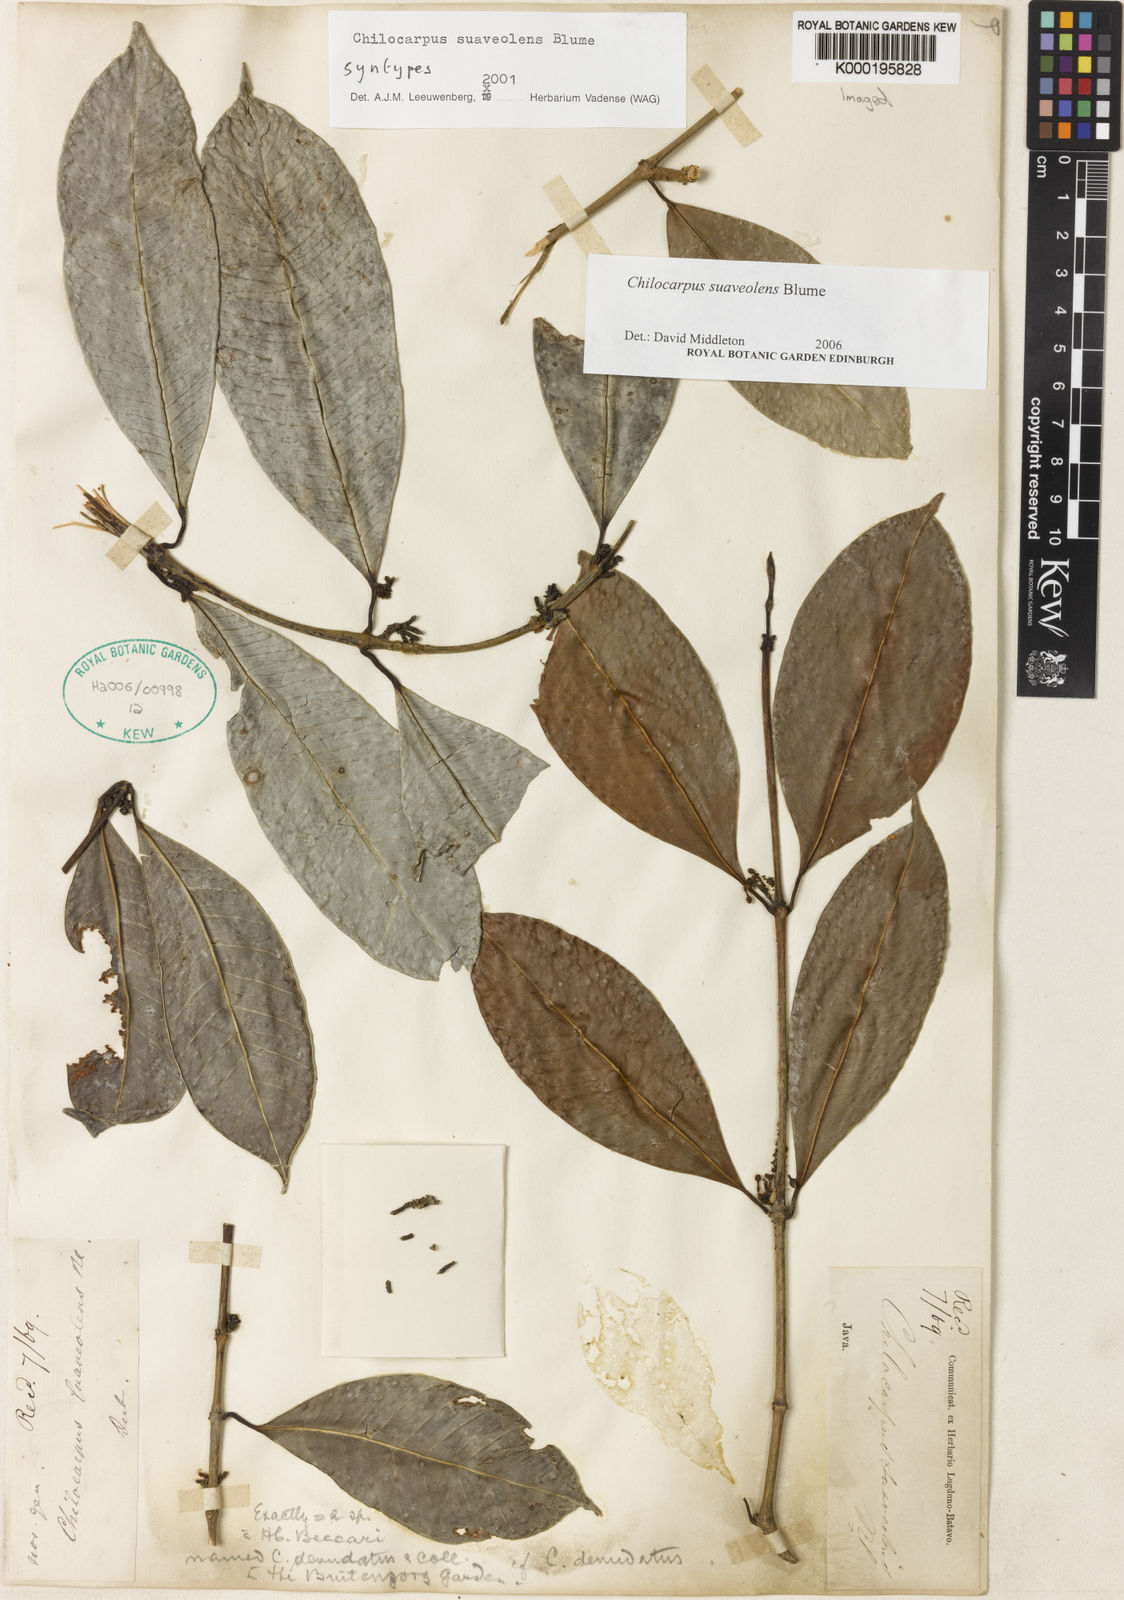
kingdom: Plantae
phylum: Tracheophyta
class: Magnoliopsida
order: Gentianales
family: Apocynaceae
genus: Chilocarpus
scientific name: Chilocarpus denudatus
